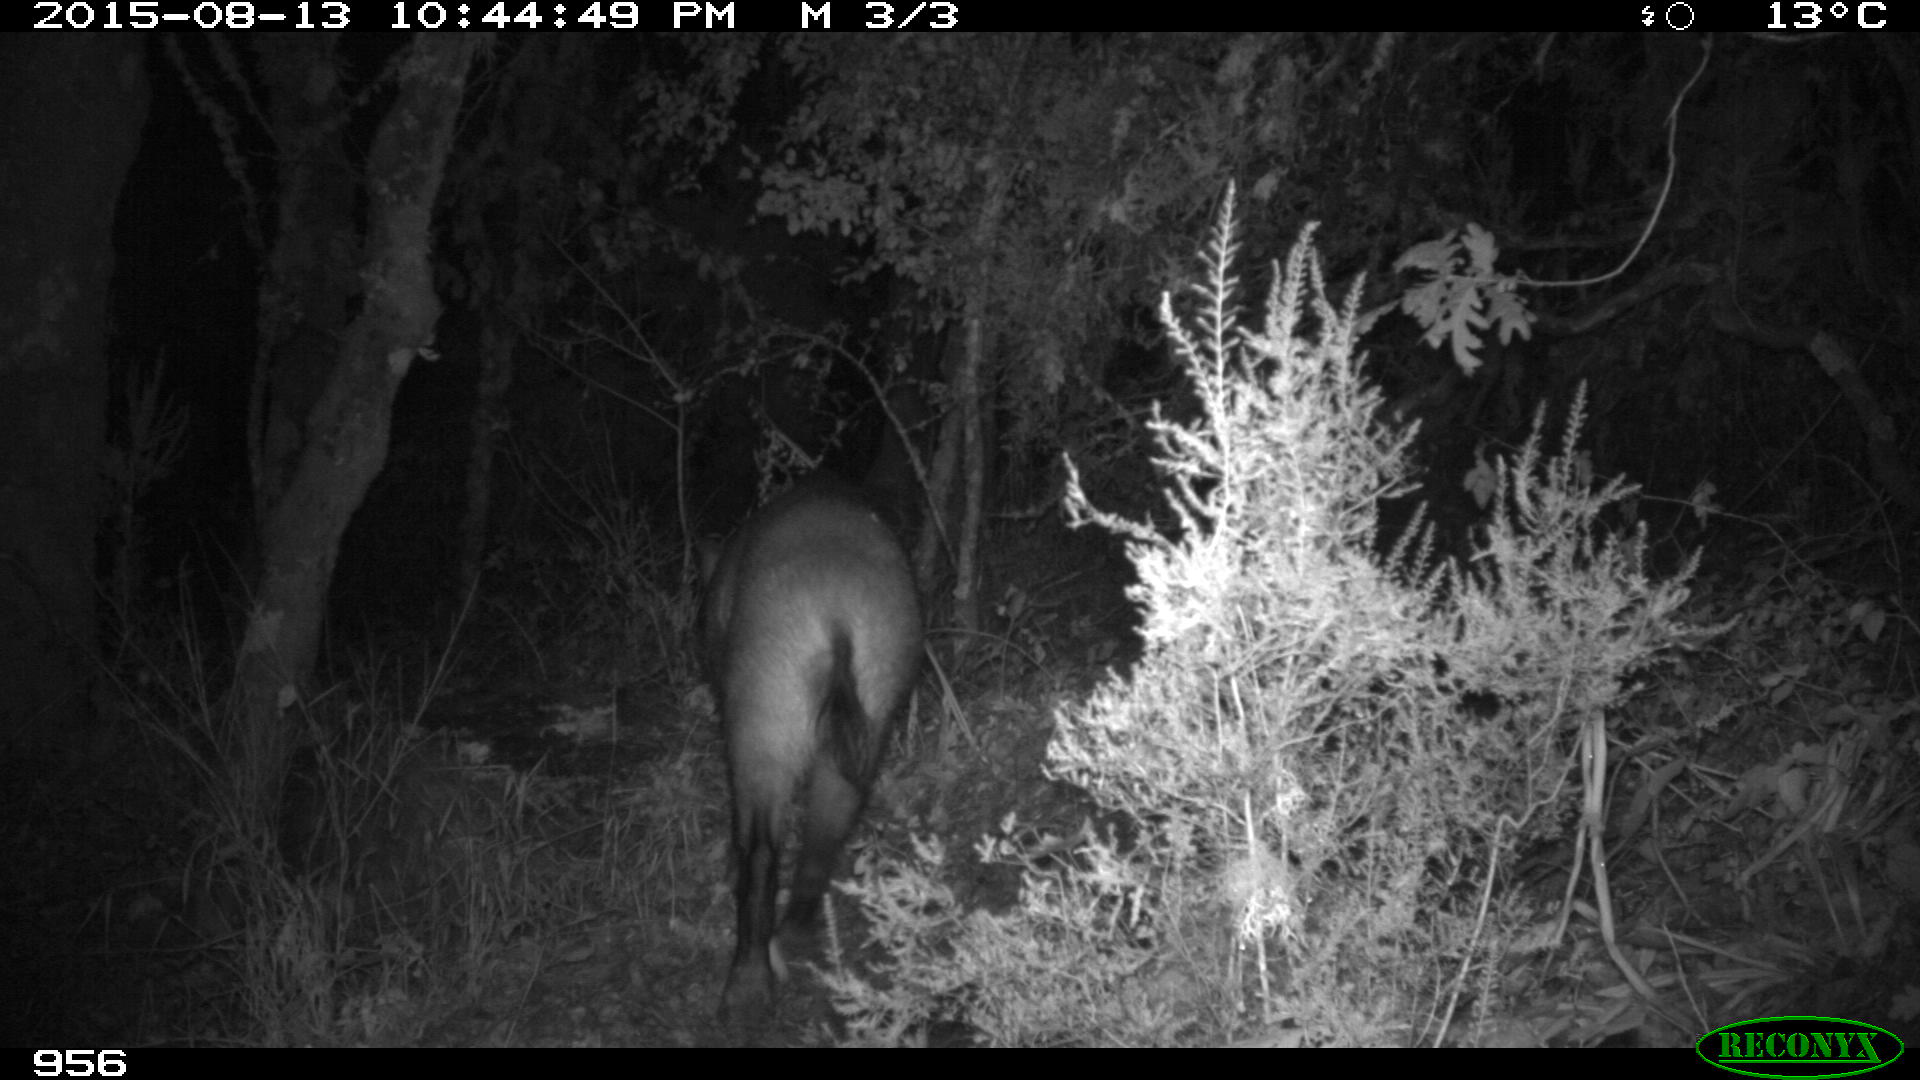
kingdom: Animalia
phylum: Chordata
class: Mammalia
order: Artiodactyla
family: Suidae
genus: Sus
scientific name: Sus scrofa
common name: Wild boar
